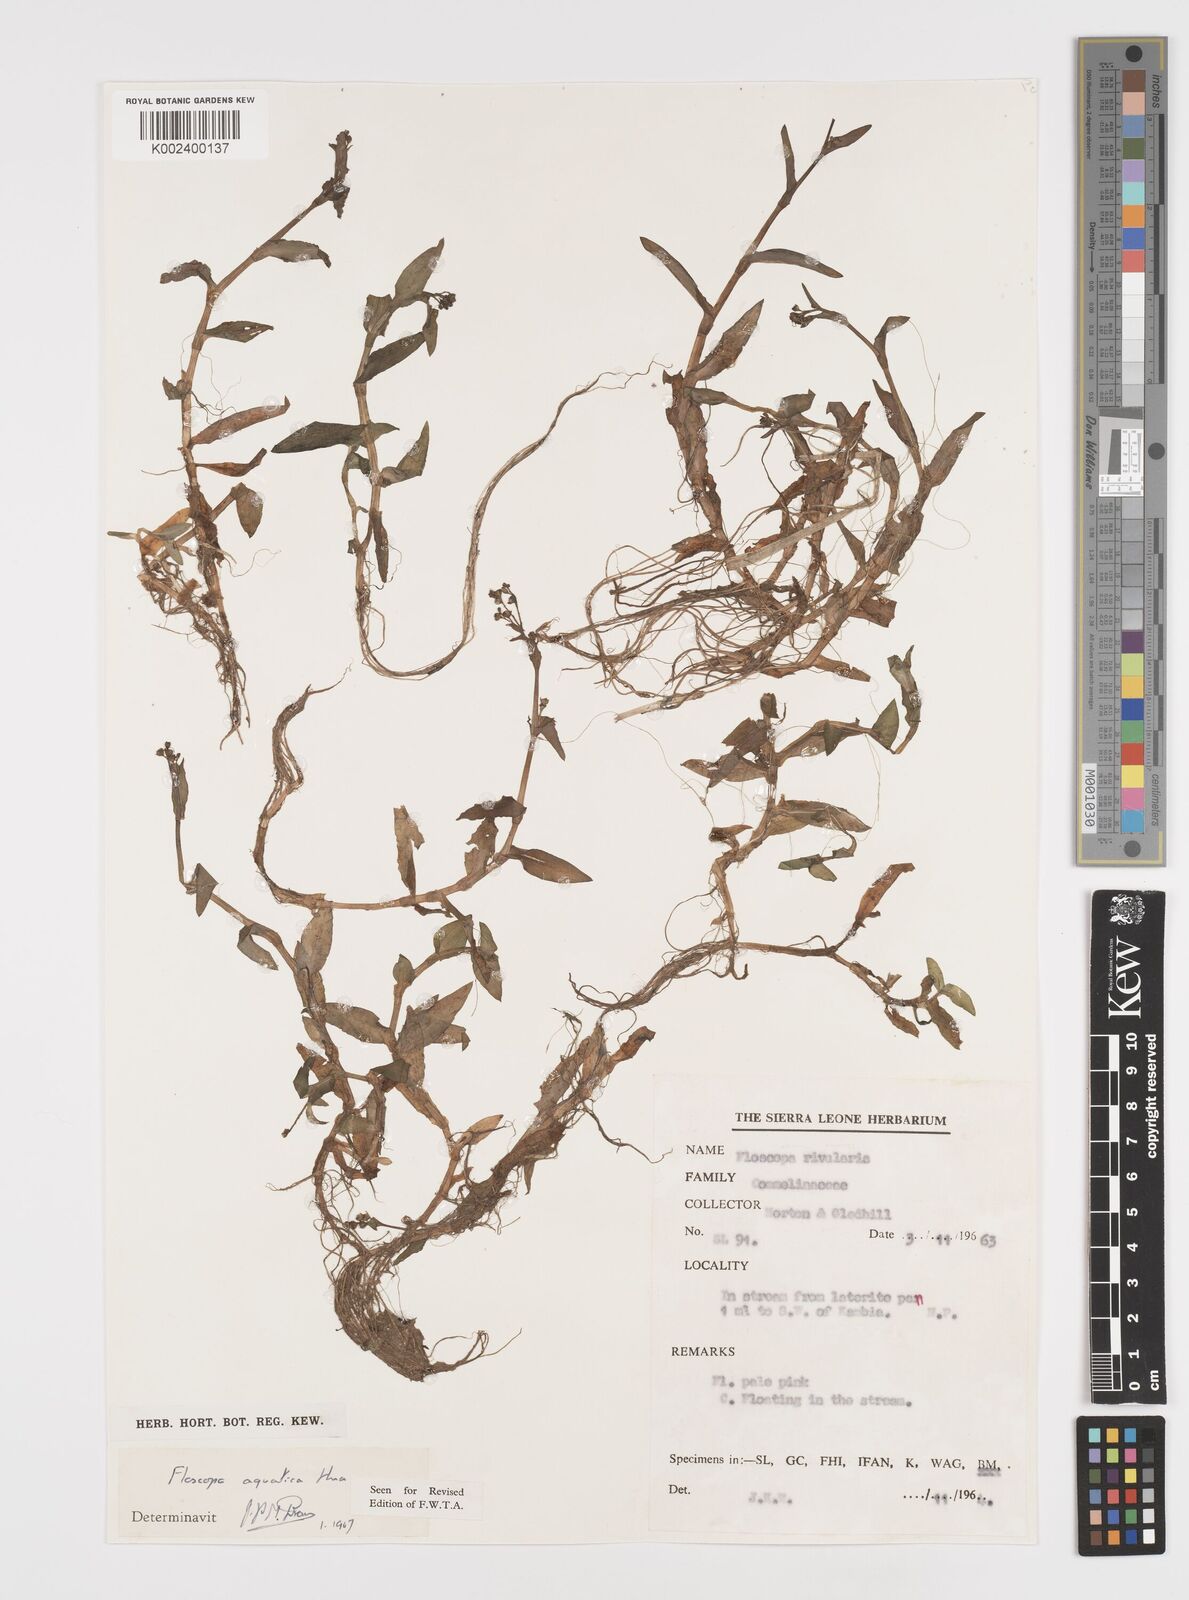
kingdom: Plantae
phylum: Tracheophyta
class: Liliopsida
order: Commelinales
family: Commelinaceae
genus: Floscopa
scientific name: Floscopa aquatica
